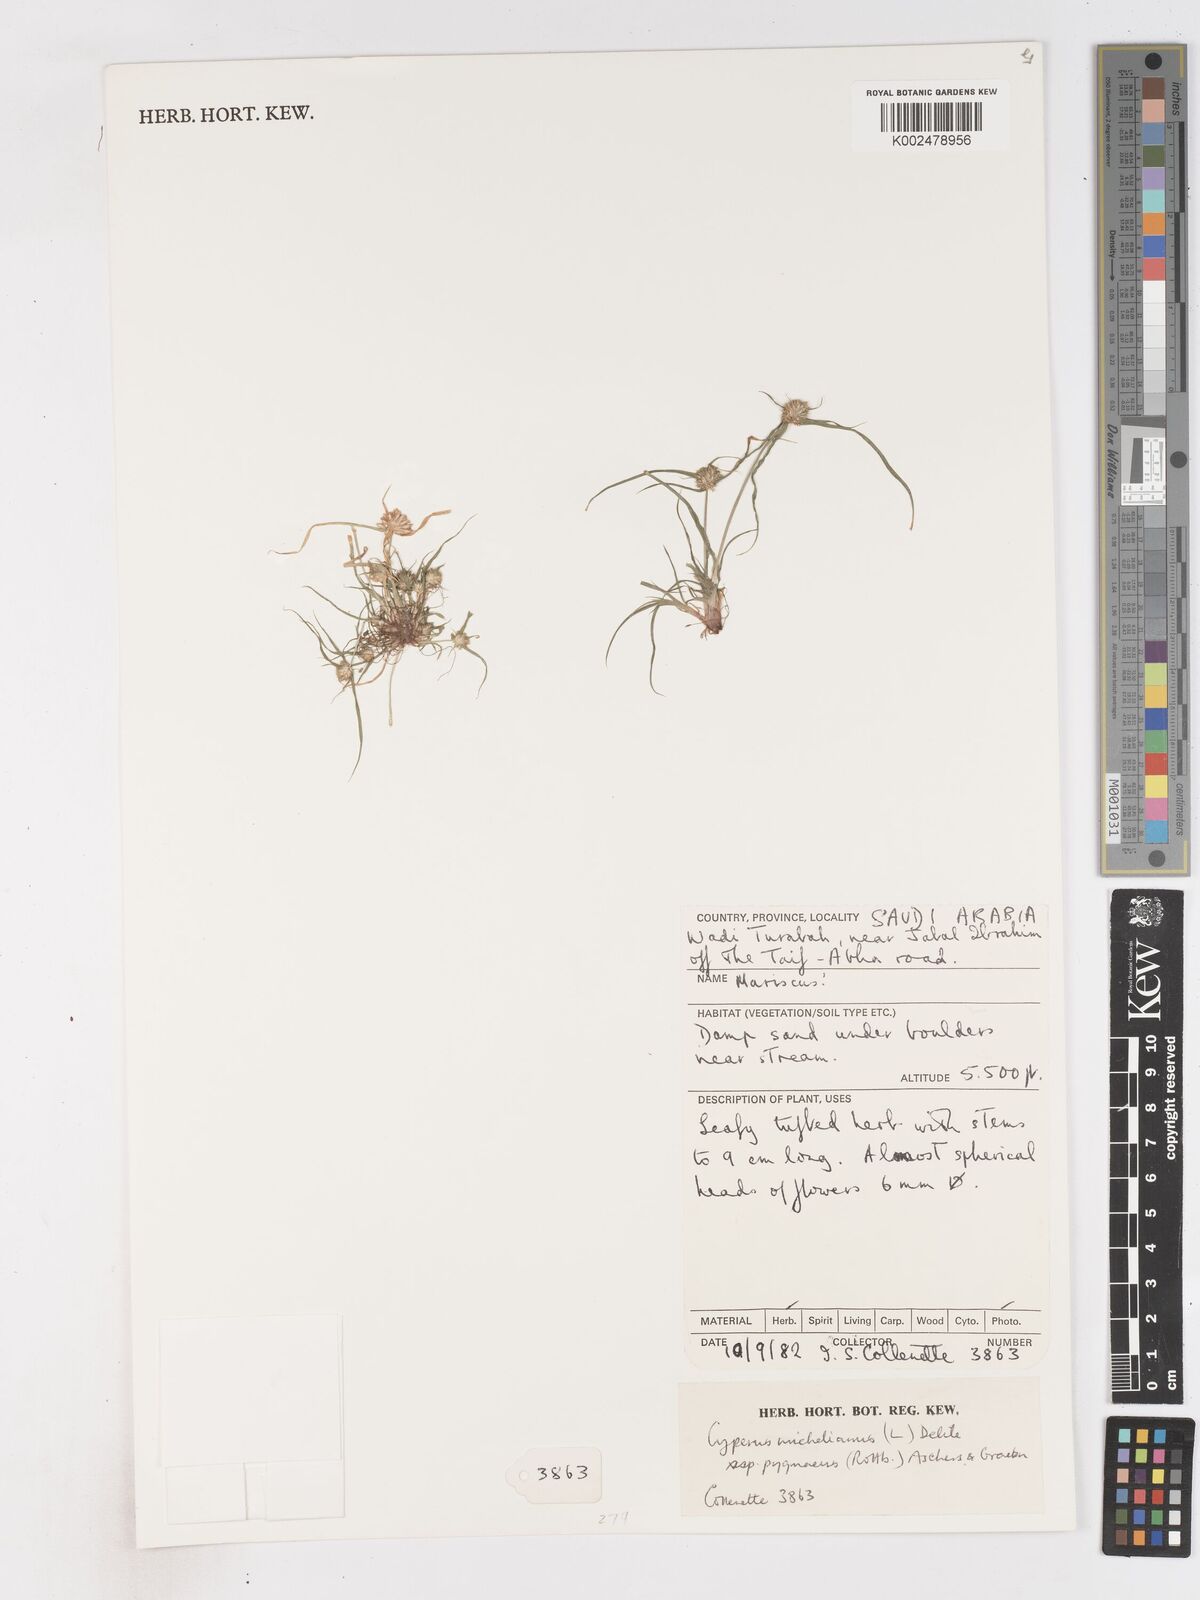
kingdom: Plantae
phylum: Tracheophyta
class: Liliopsida
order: Poales
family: Cyperaceae
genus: Cyperus
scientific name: Cyperus michelianus
